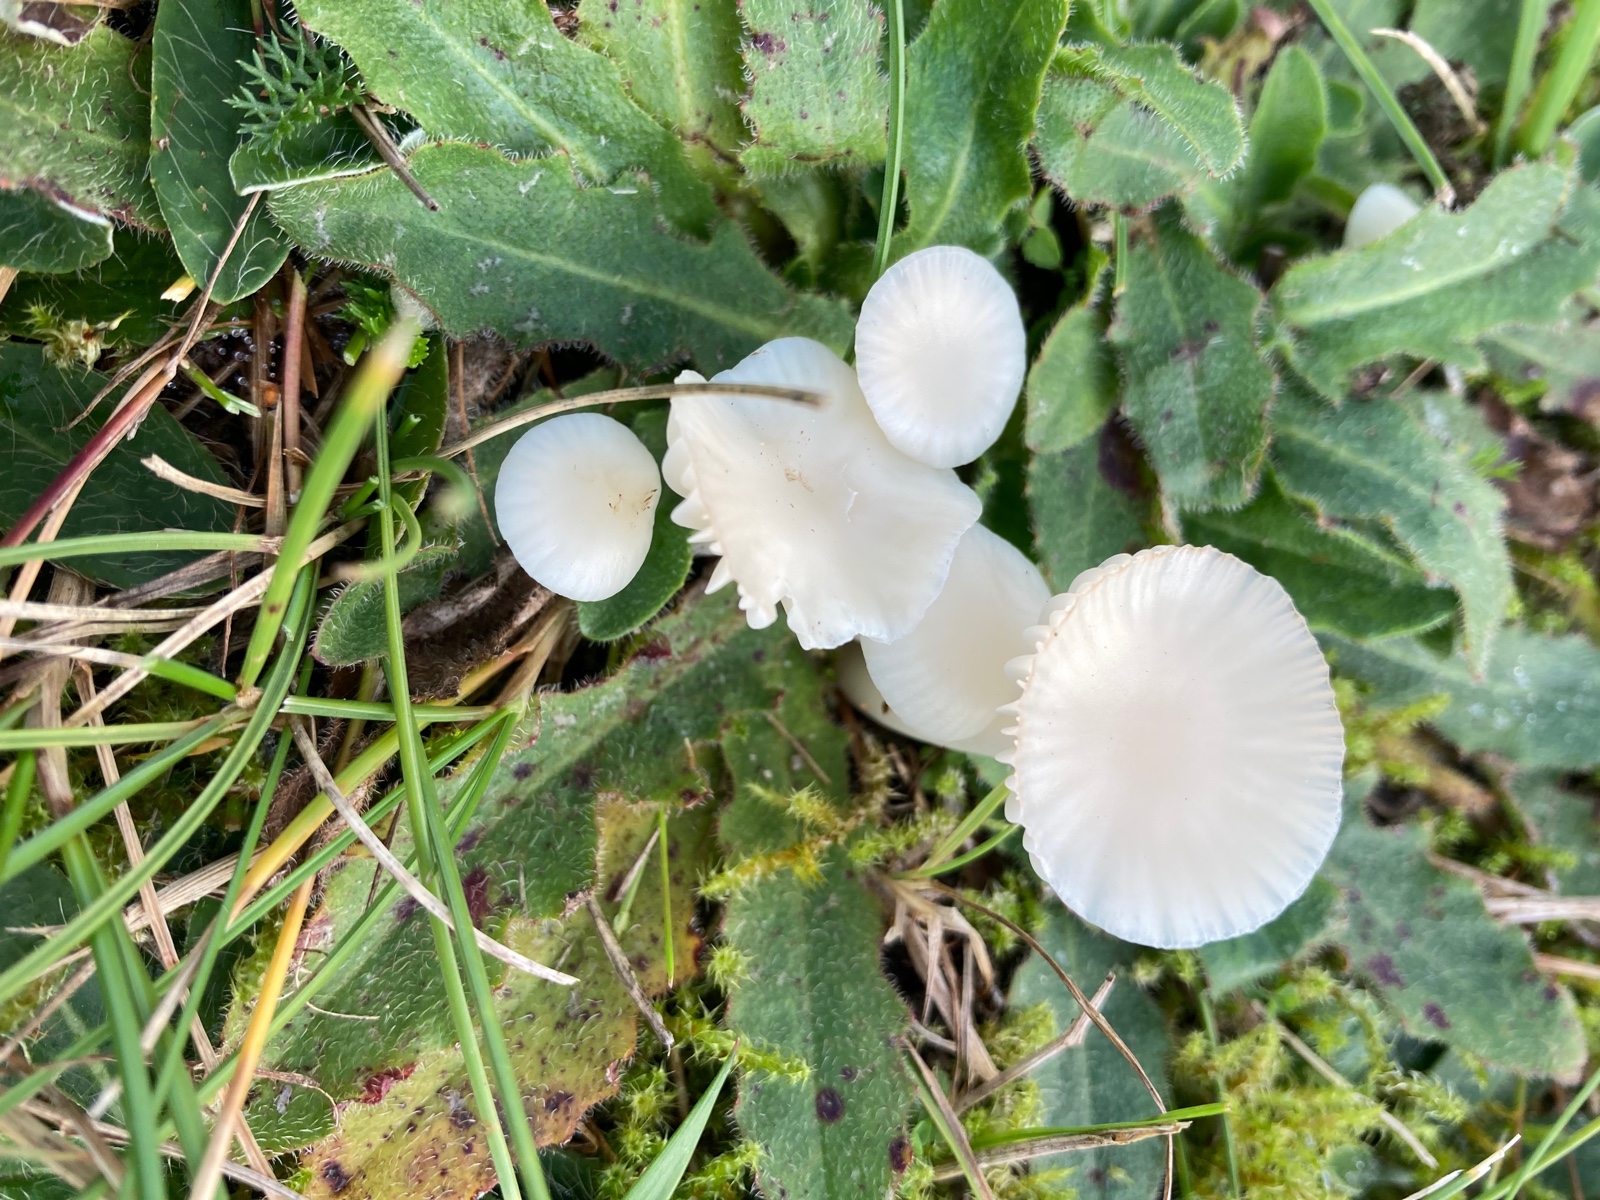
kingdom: Fungi
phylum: Basidiomycota
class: Agaricomycetes
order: Agaricales
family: Hygrophoraceae
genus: Cuphophyllus
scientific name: Cuphophyllus
